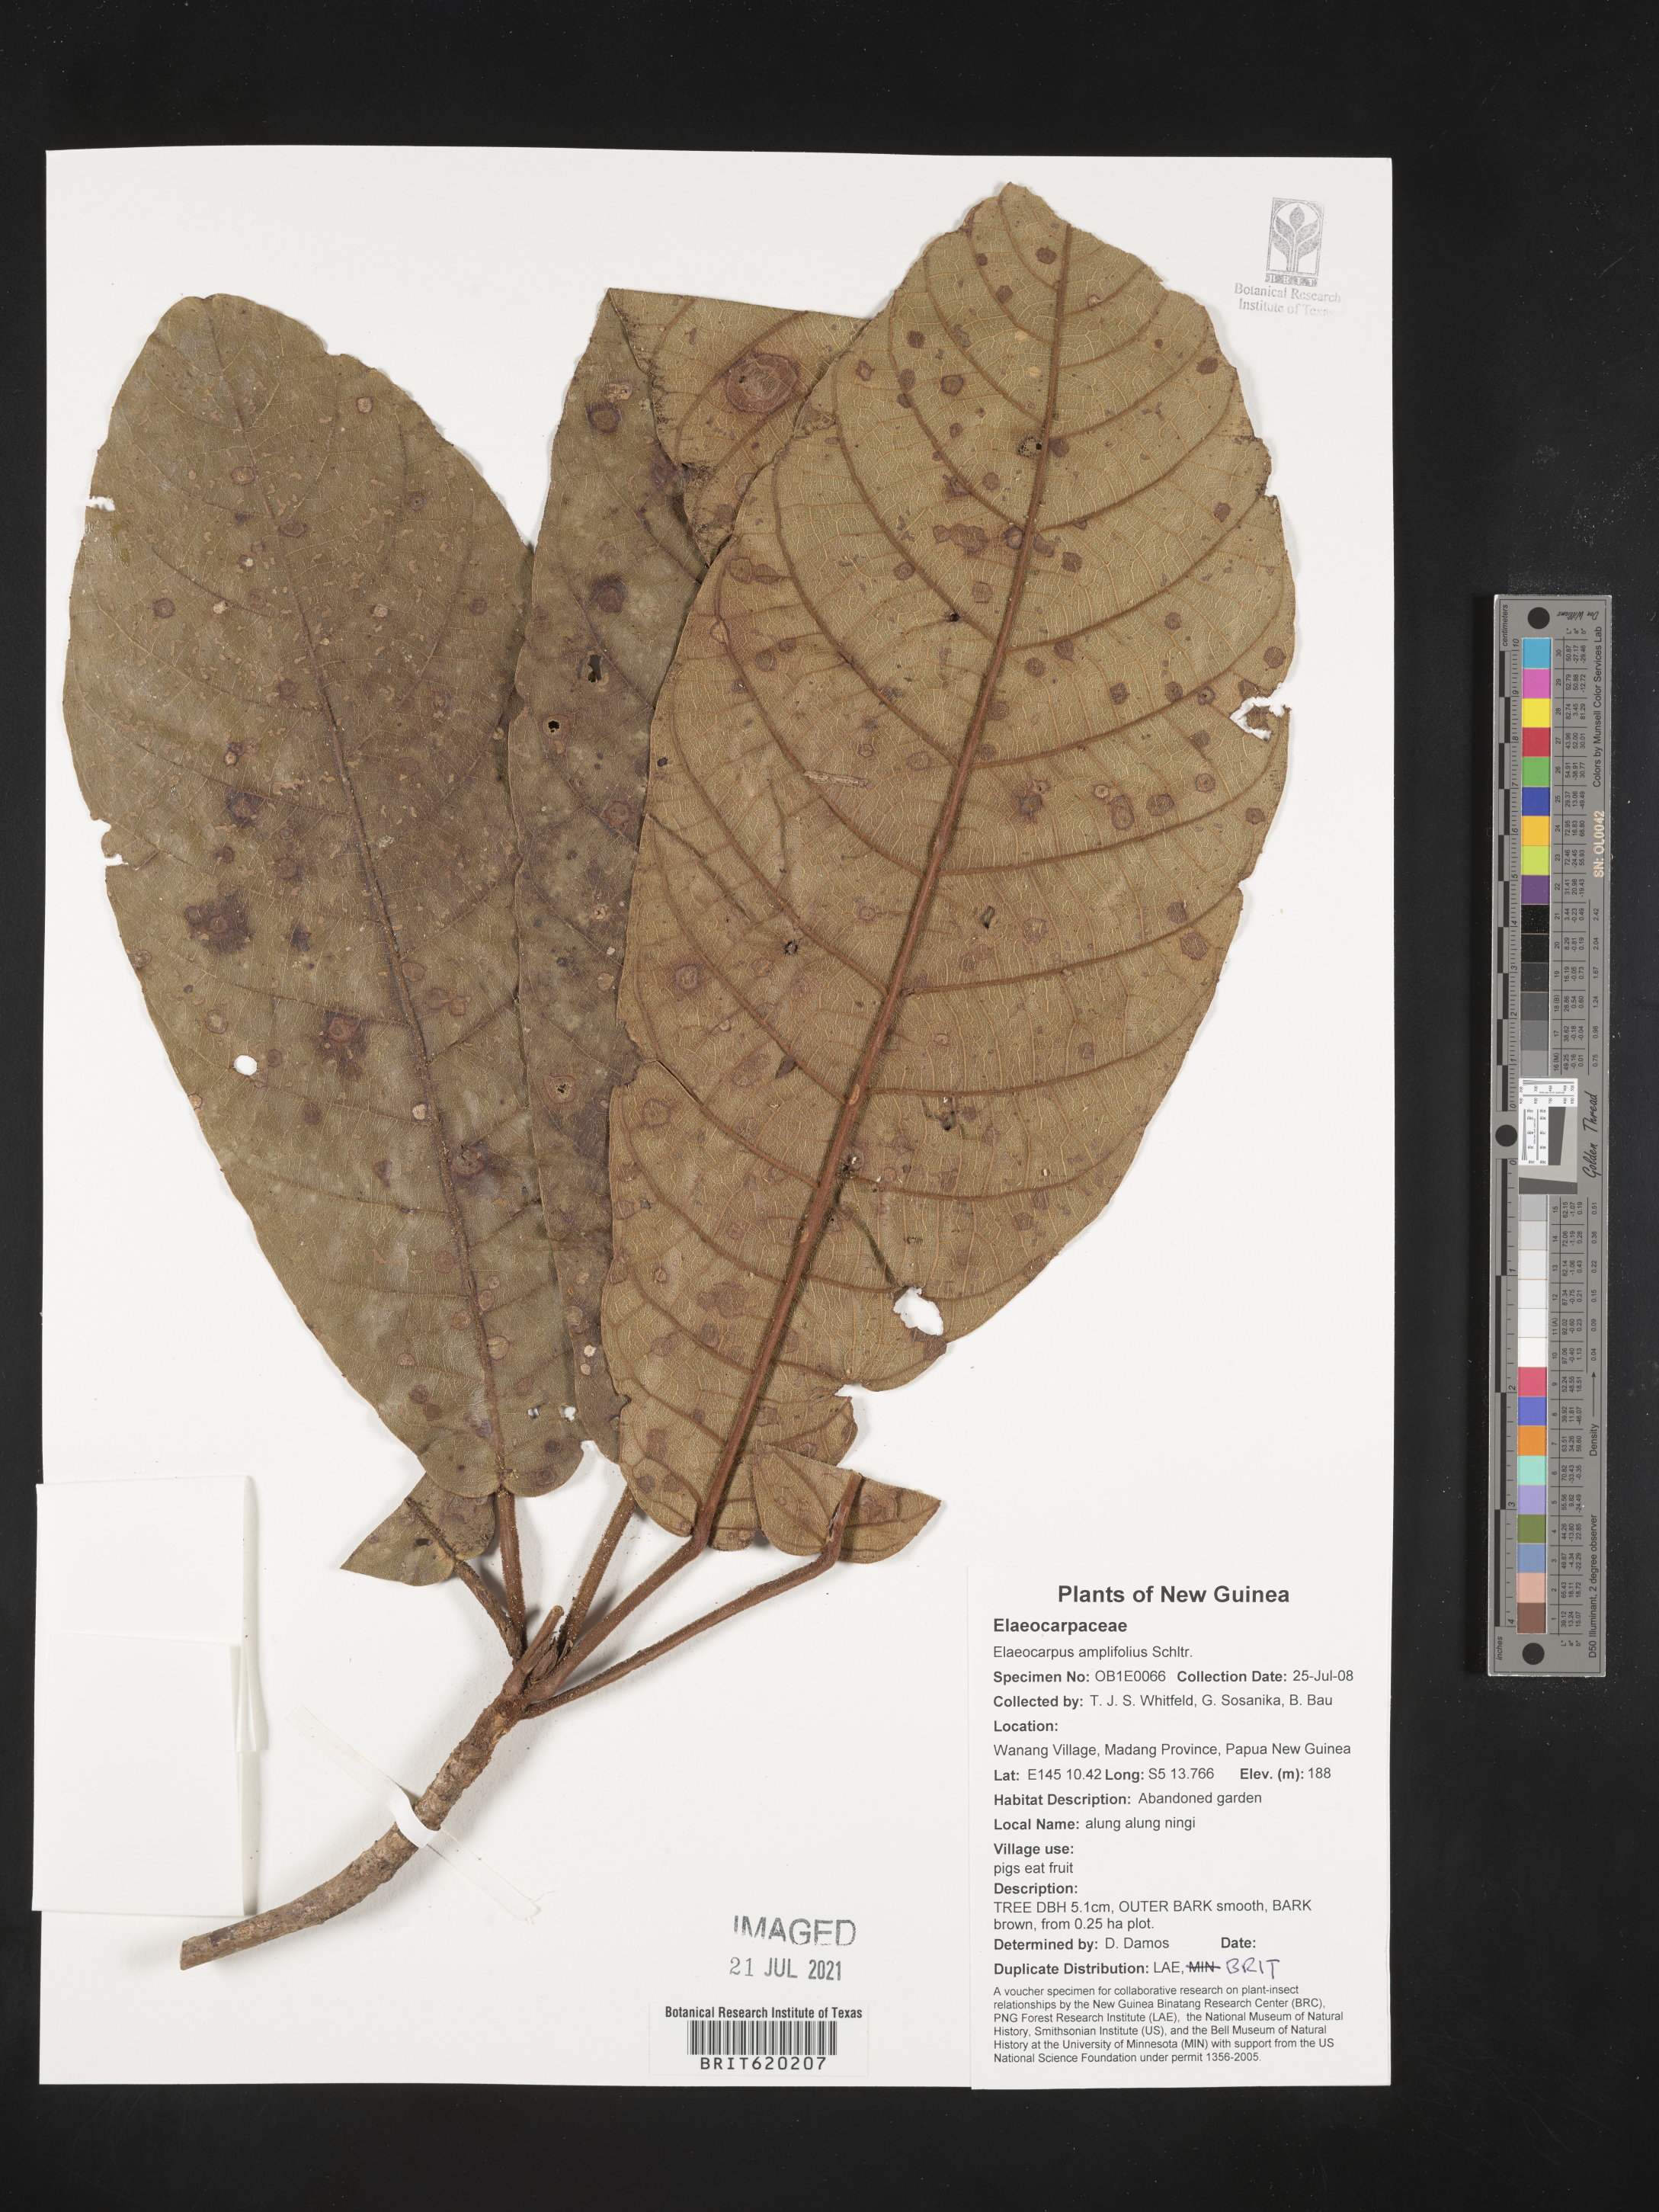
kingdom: Plantae
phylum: Tracheophyta
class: Magnoliopsida
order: Oxalidales
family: Elaeocarpaceae
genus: Elaeocarpus
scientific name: Elaeocarpus amplifolius
